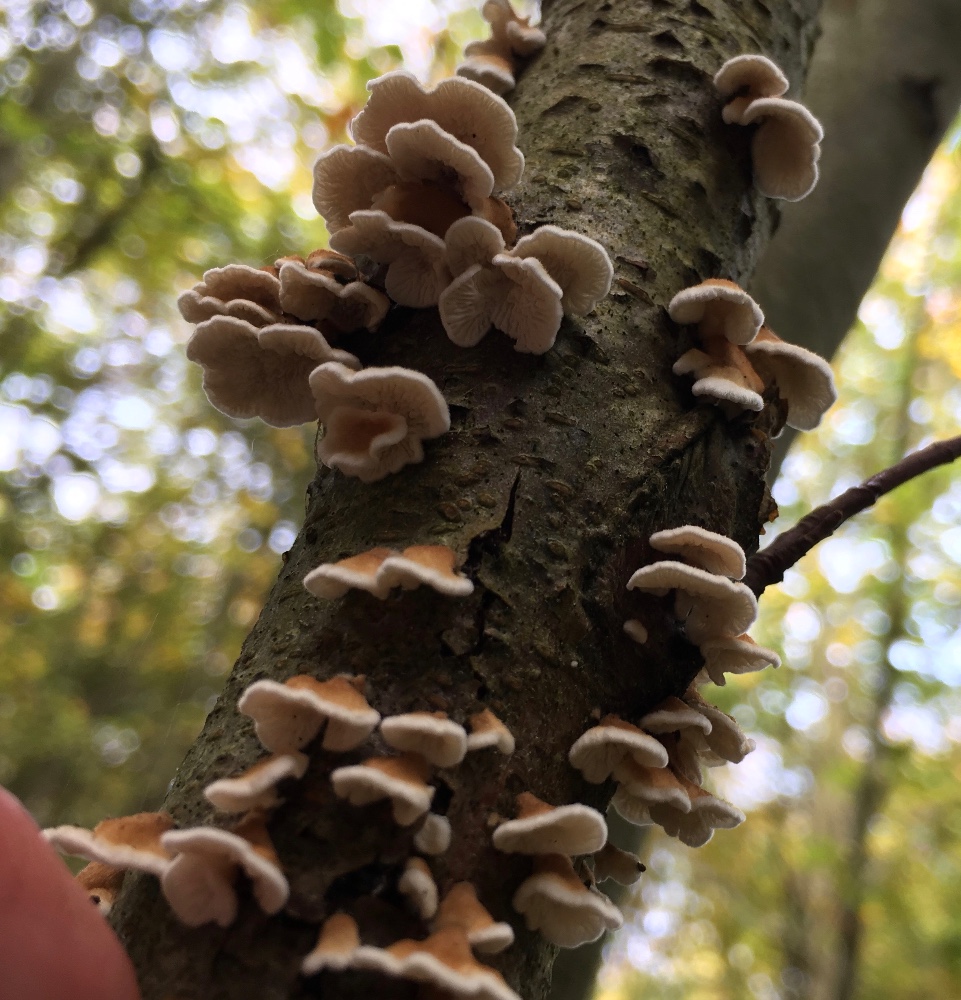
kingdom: Fungi
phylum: Basidiomycota
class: Agaricomycetes
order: Amylocorticiales
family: Amylocorticiaceae
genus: Plicaturopsis
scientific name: Plicaturopsis crispa
